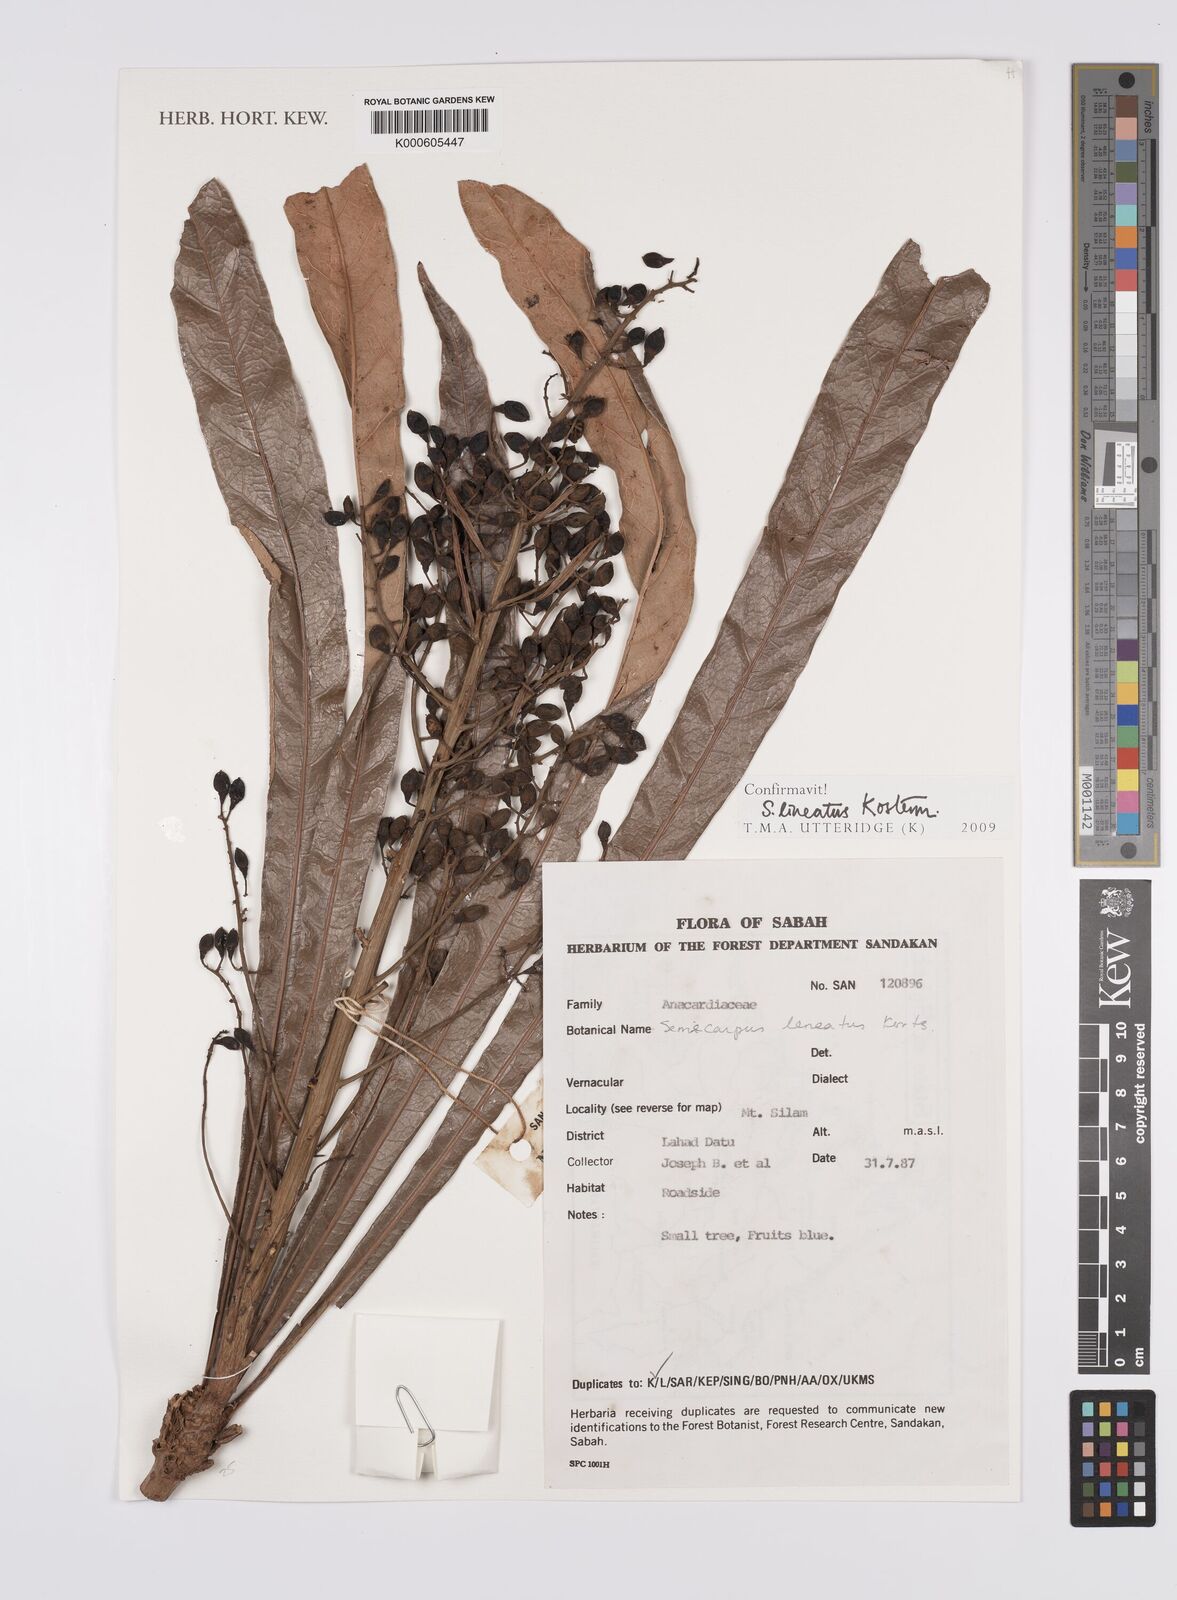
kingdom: Plantae
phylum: Tracheophyta
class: Magnoliopsida
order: Sapindales
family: Anacardiaceae
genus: Semecarpus
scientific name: Semecarpus lineatus
